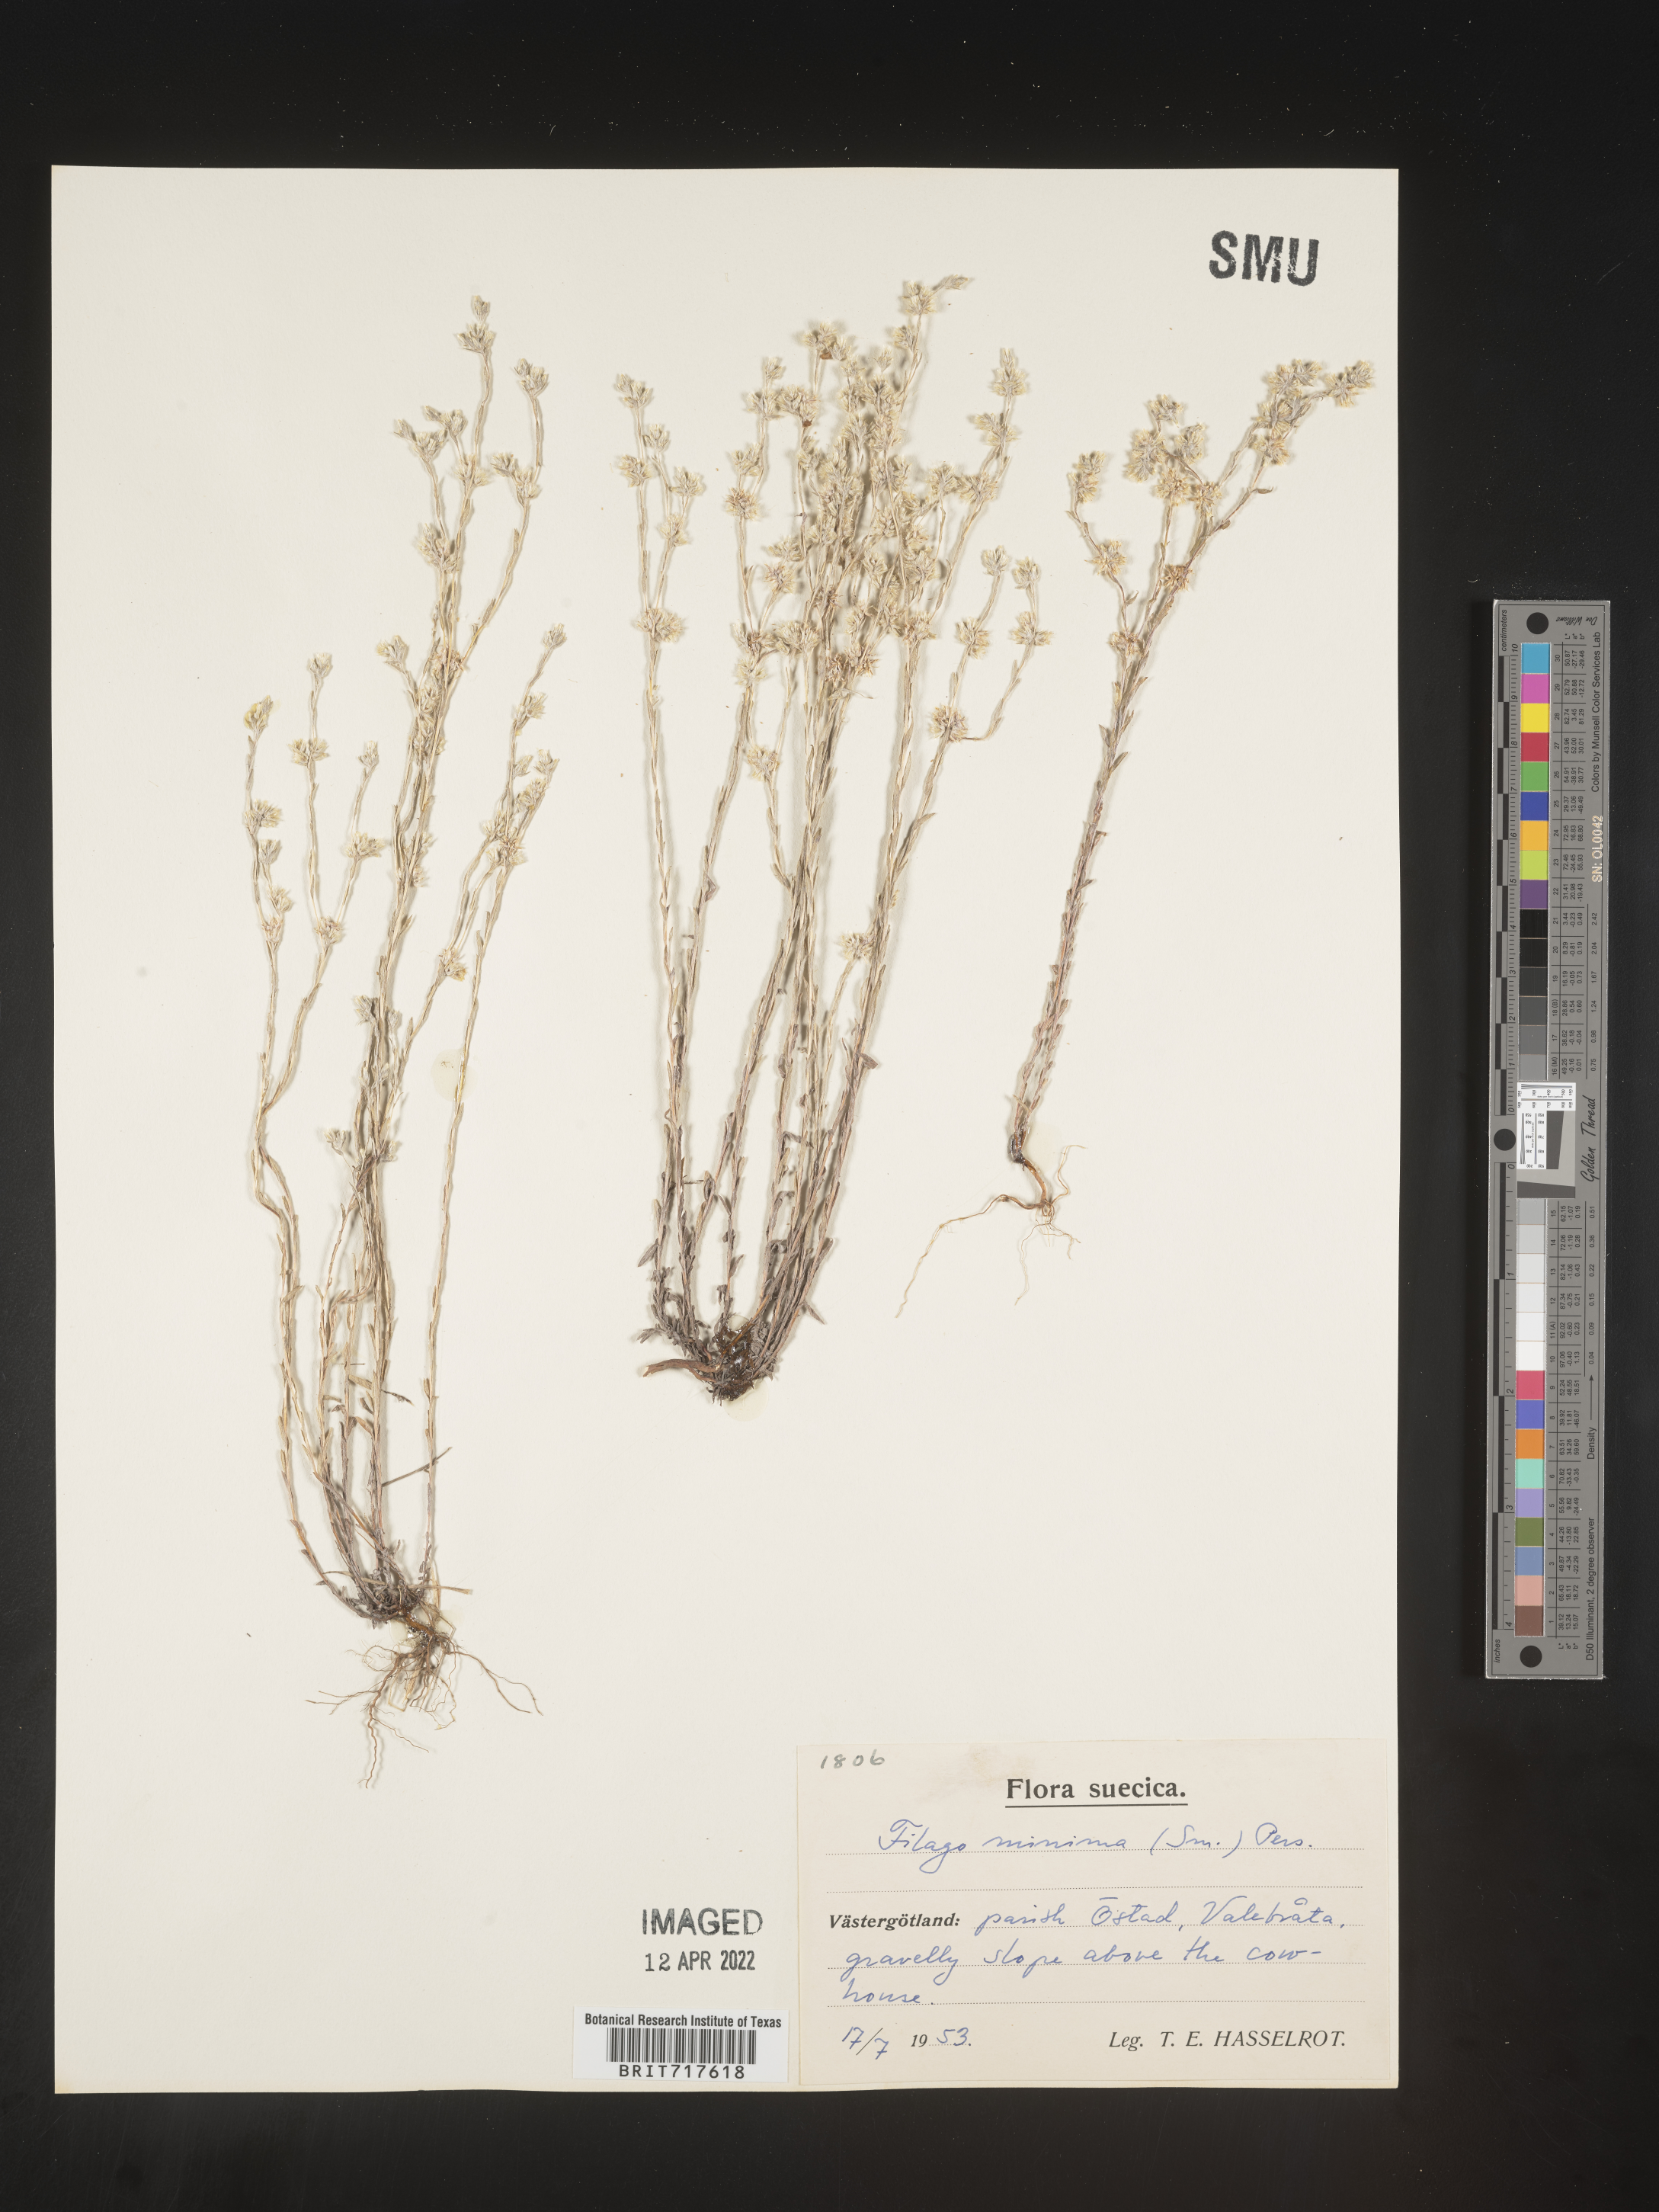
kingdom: Plantae
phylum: Tracheophyta
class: Magnoliopsida
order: Asterales
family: Asteraceae
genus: Filago
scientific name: Filago
